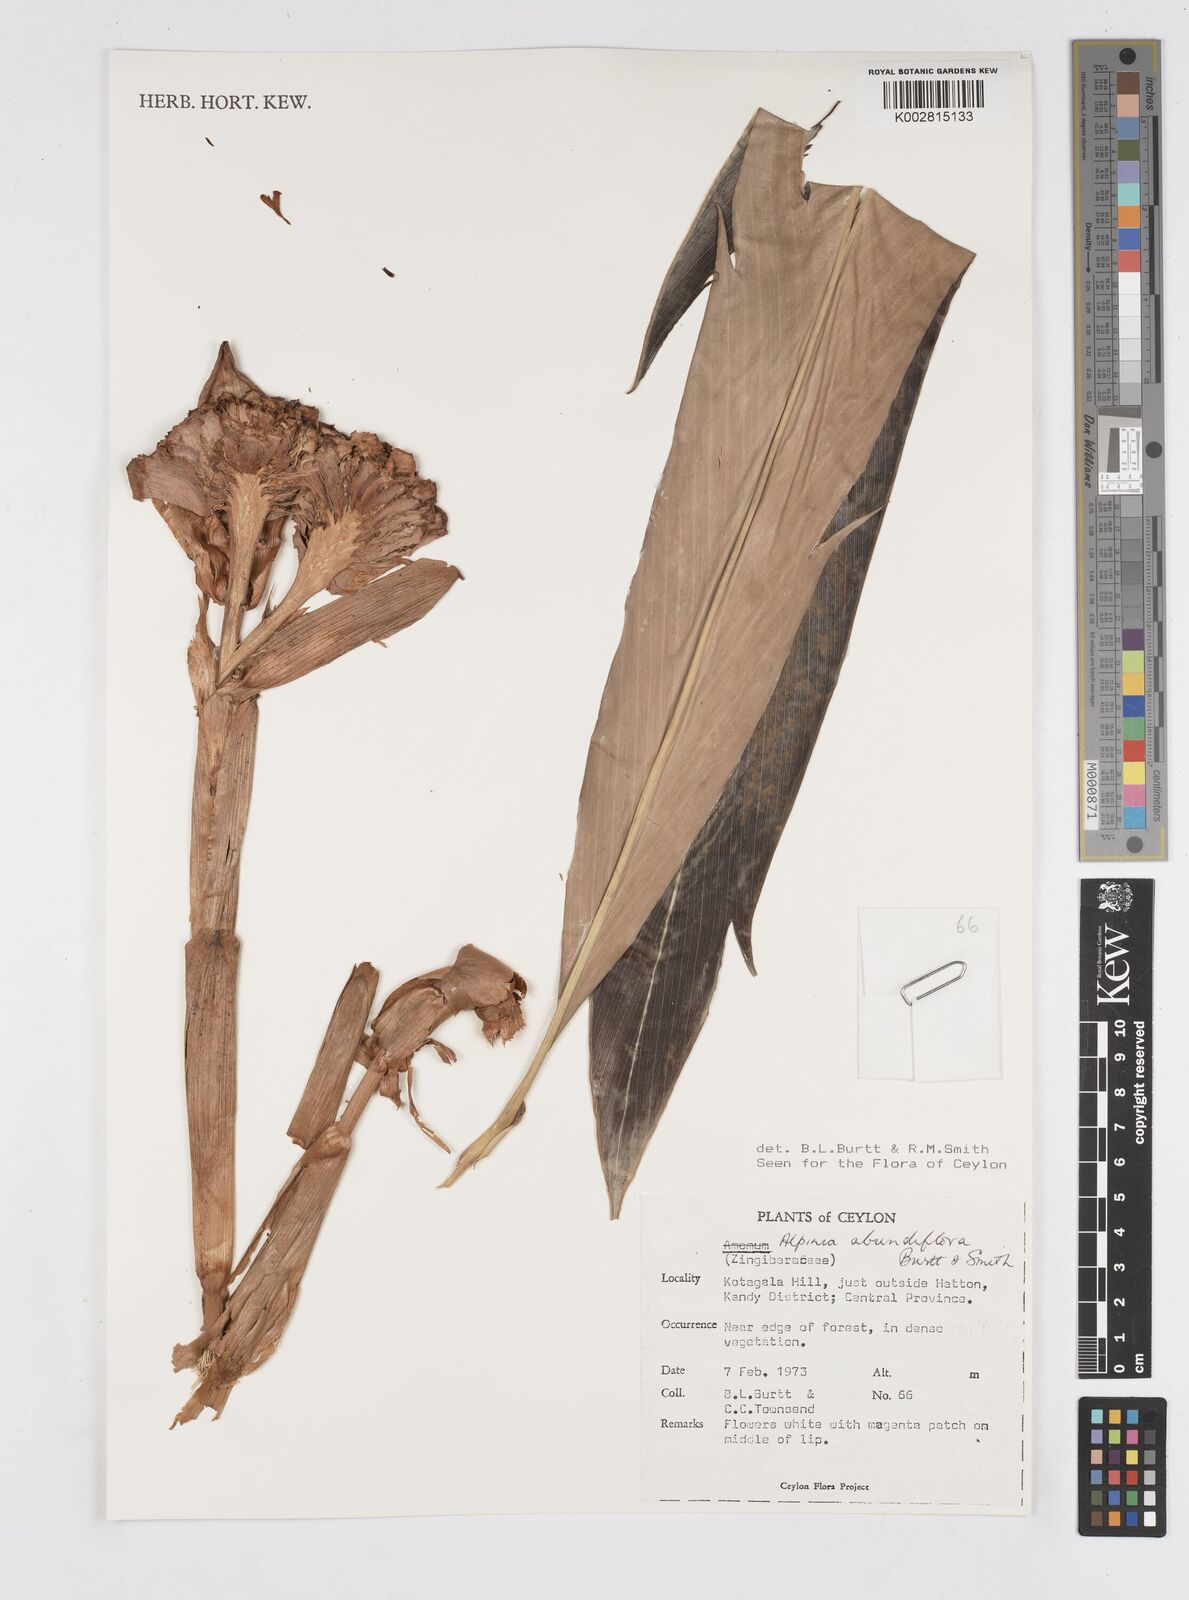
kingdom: Plantae
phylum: Tracheophyta
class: Liliopsida
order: Zingiberales
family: Zingiberaceae
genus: Alpinia
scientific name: Alpinia abundiflora
